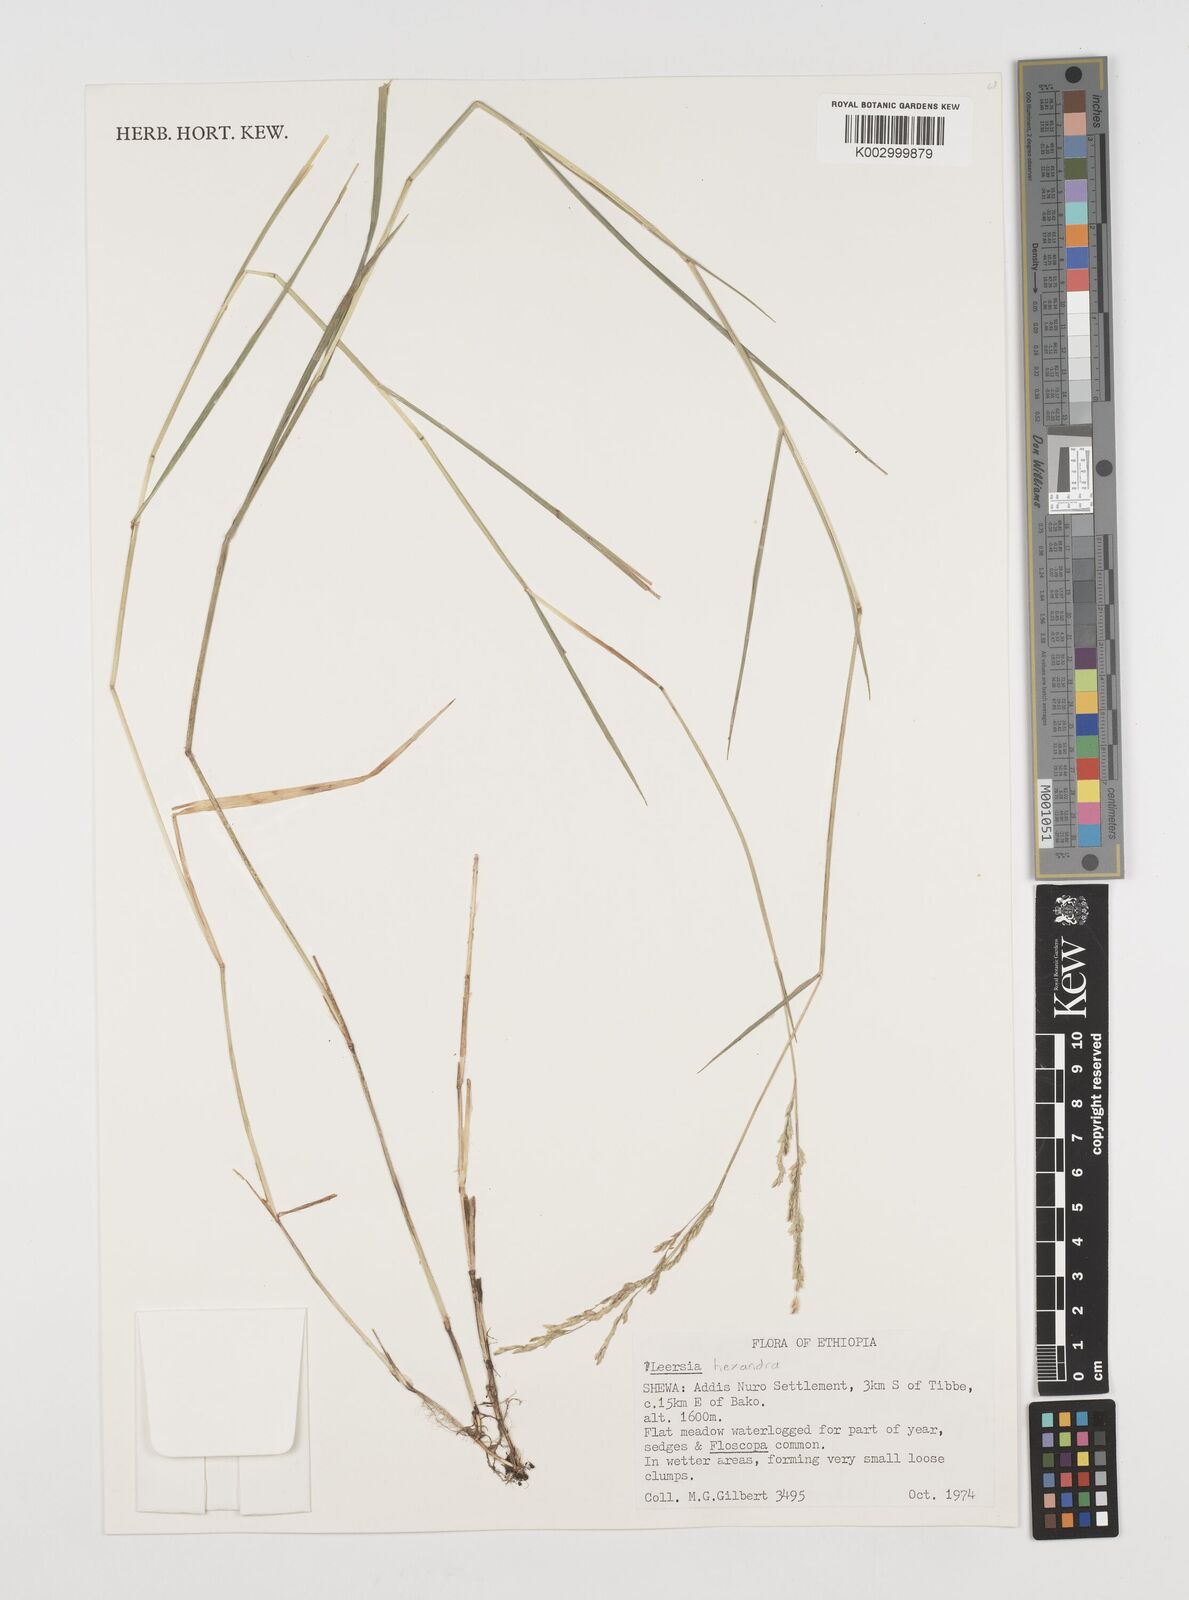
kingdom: Plantae
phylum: Tracheophyta
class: Liliopsida
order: Poales
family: Poaceae
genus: Leersia
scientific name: Leersia hexandra
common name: Southern cut grass
